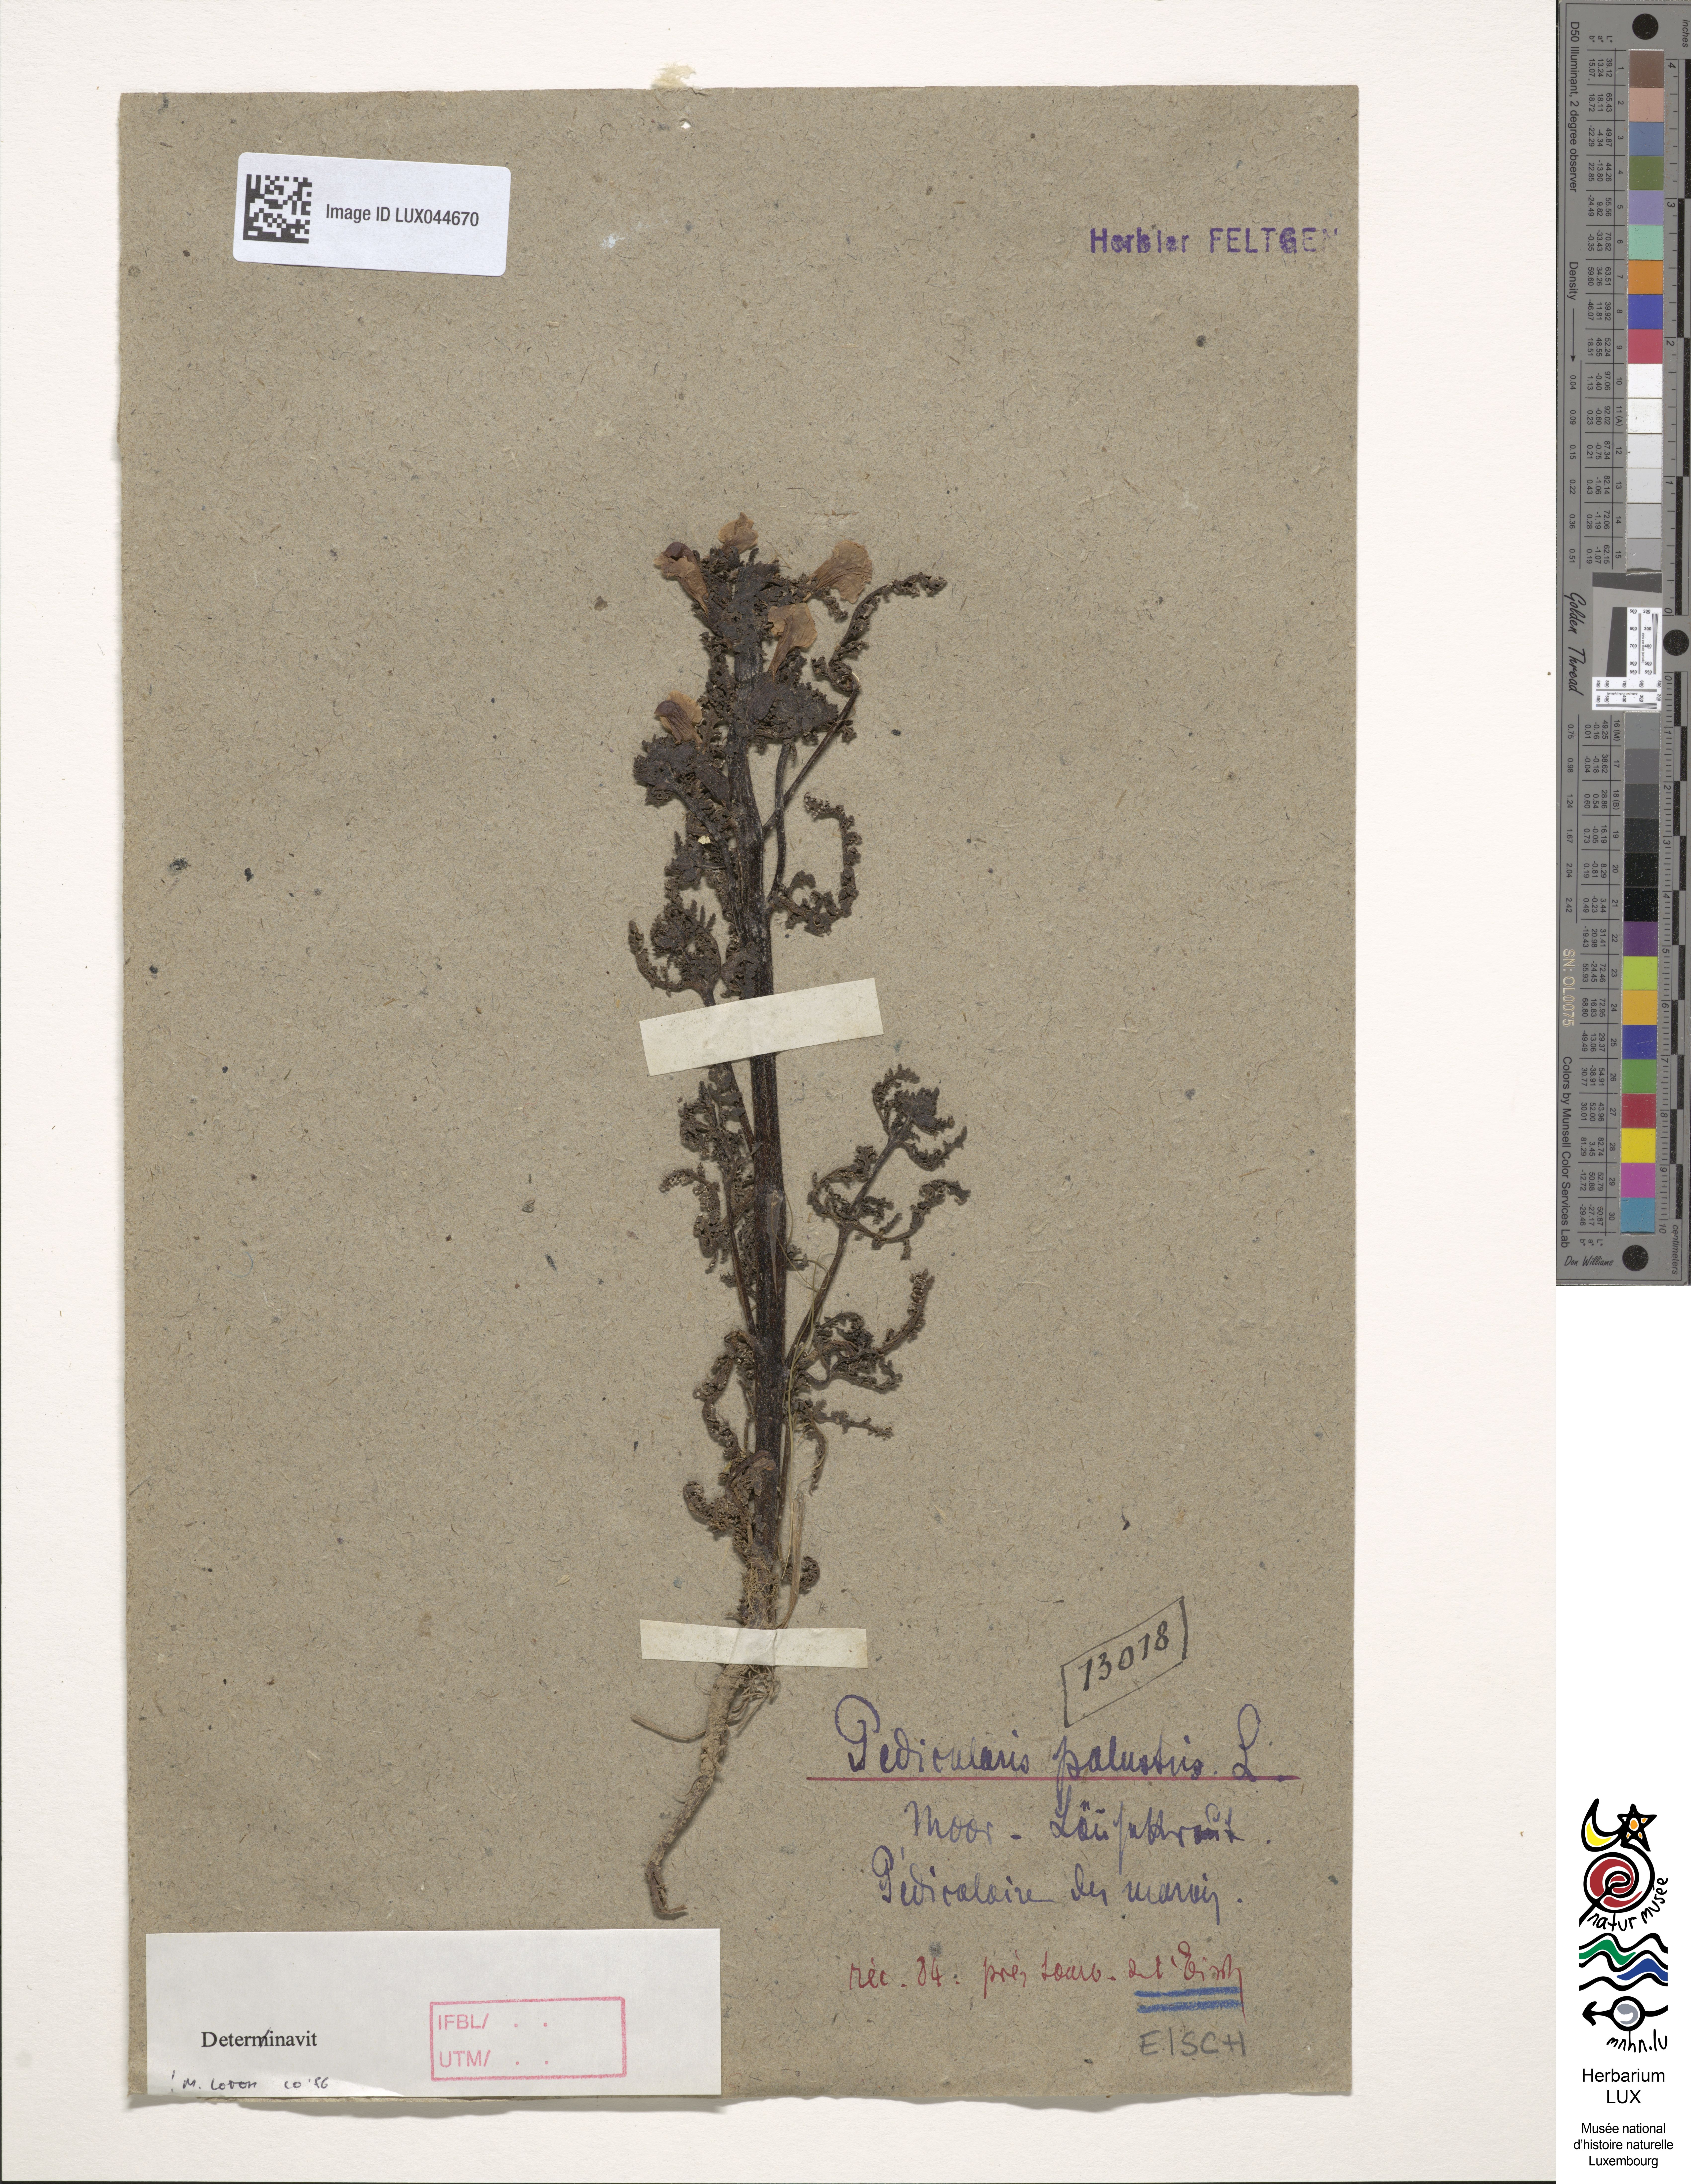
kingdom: Plantae
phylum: Tracheophyta
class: Magnoliopsida
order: Lamiales
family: Orobanchaceae
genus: Pedicularis
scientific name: Pedicularis palustris
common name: Marsh lousewort
